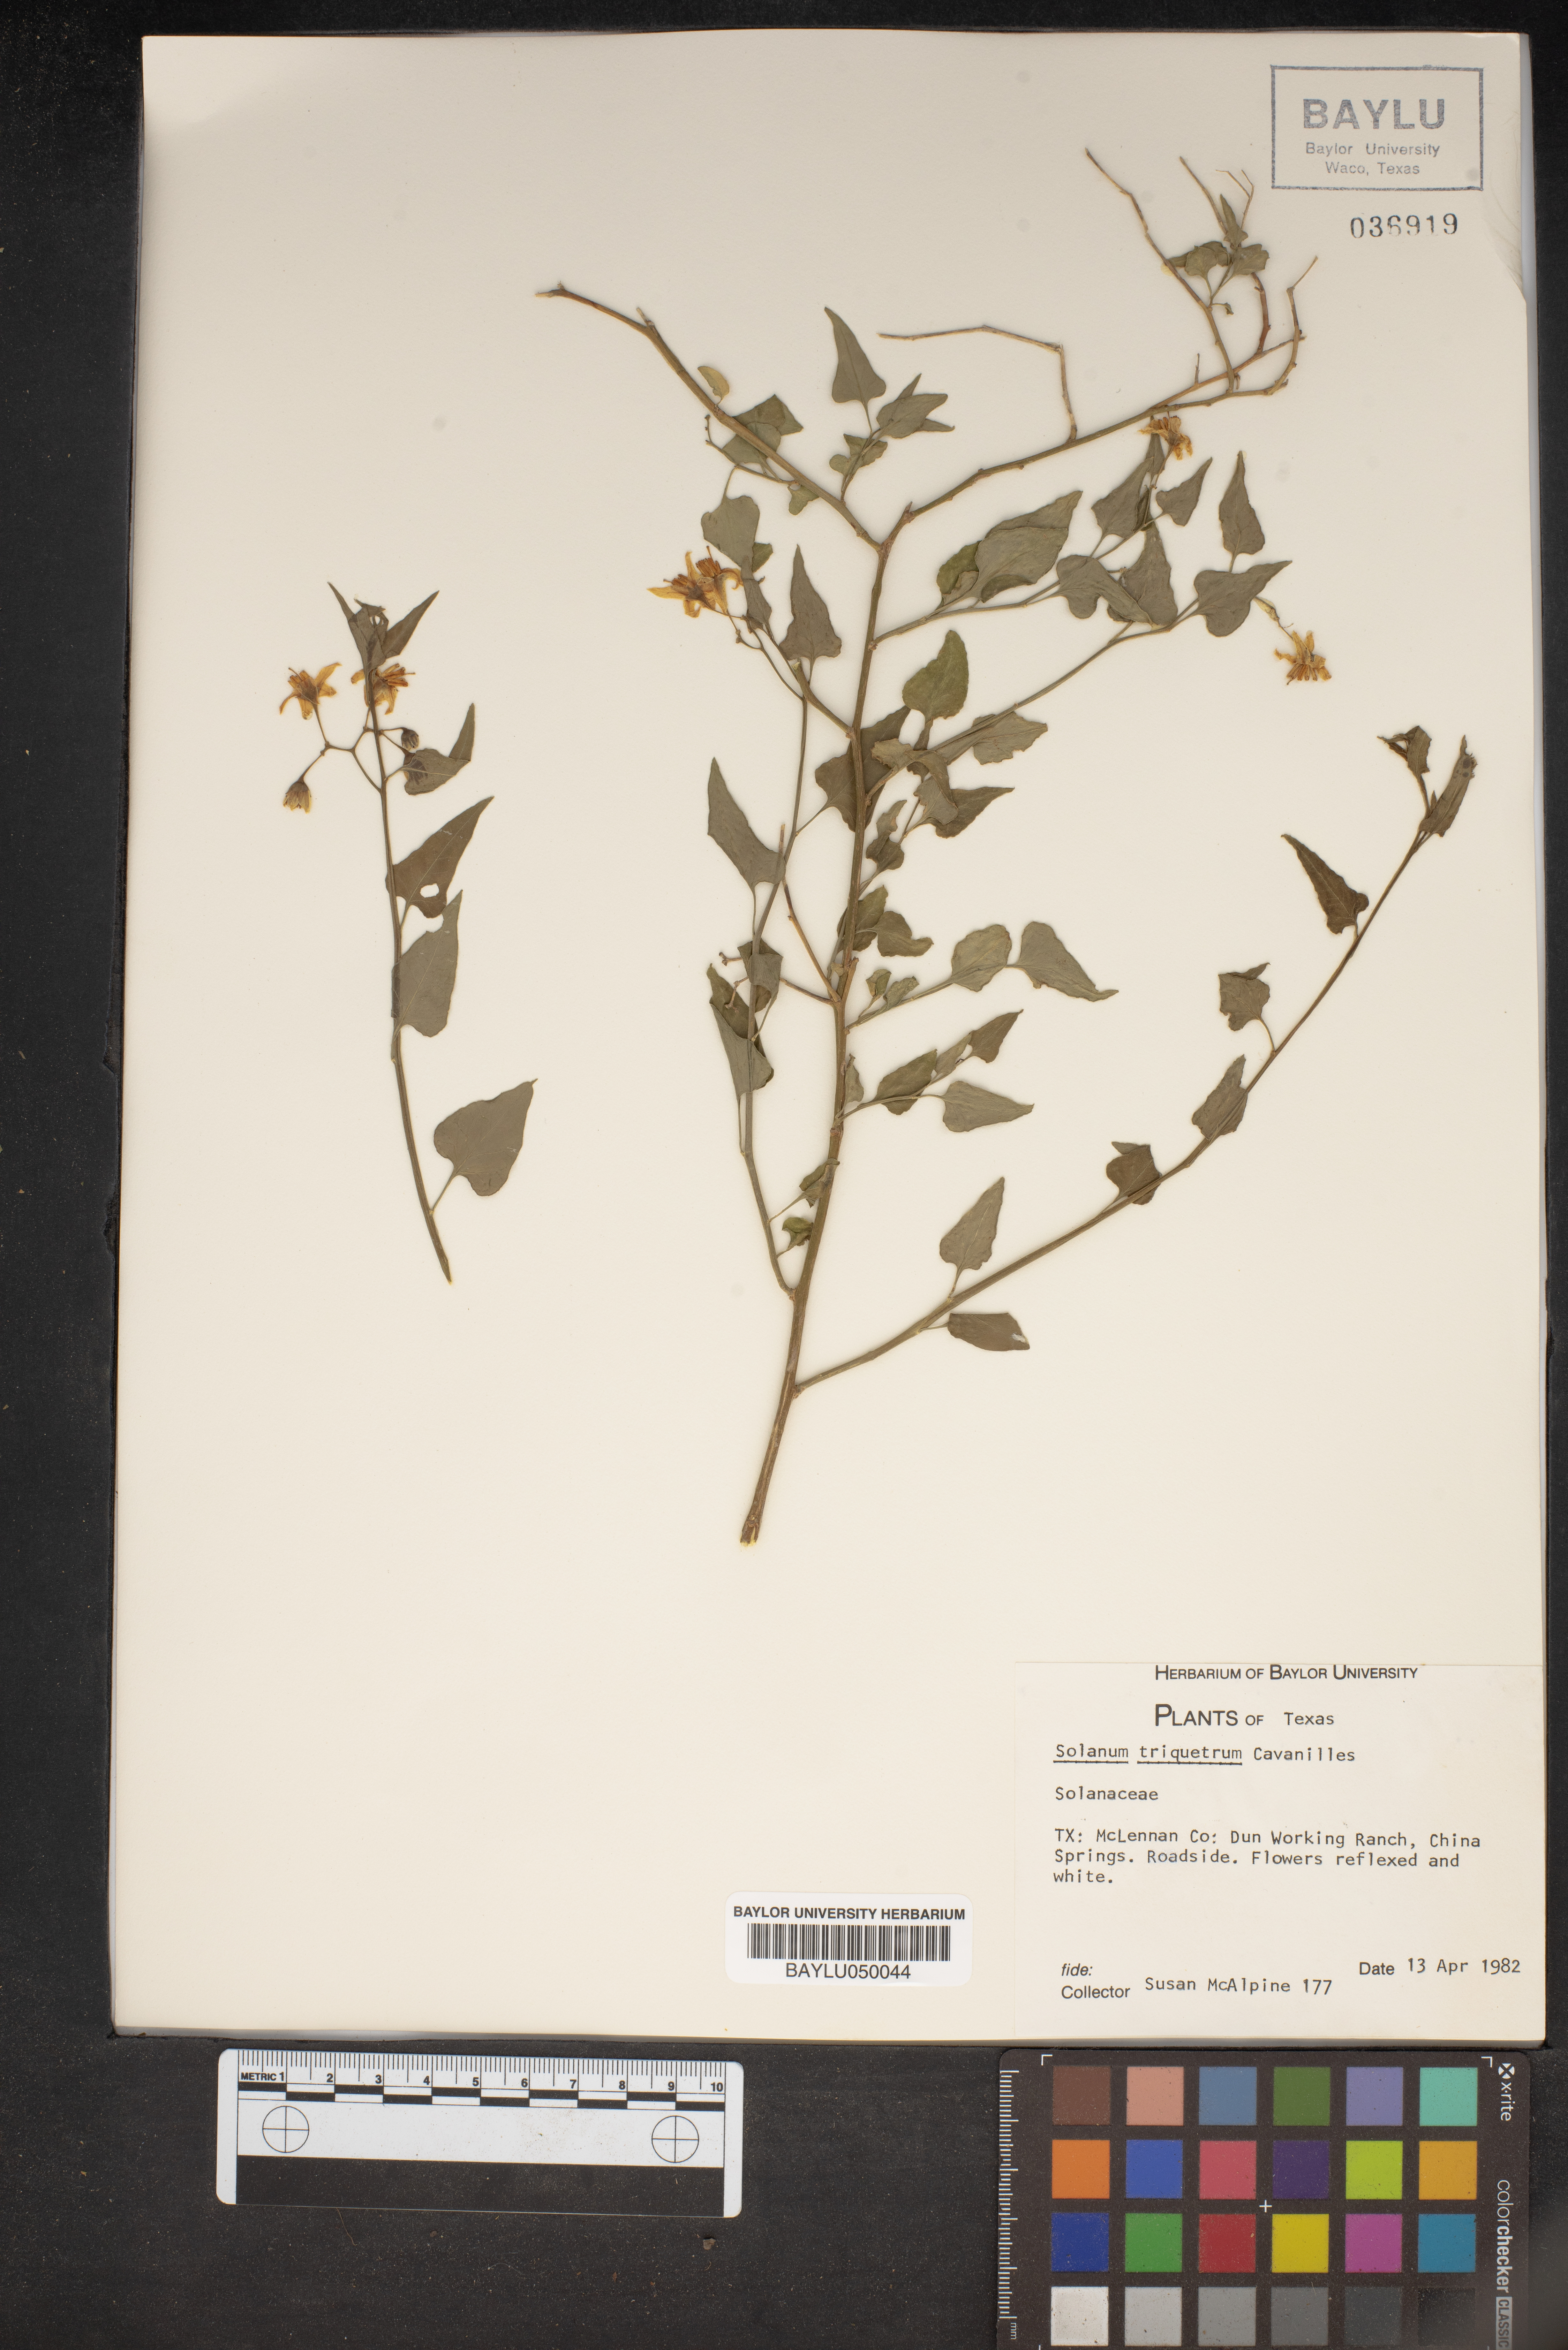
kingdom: Plantae
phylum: Tracheophyta
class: Magnoliopsida
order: Solanales
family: Solanaceae
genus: Solanum
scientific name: Solanum triquetrum
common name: Texas nightshade
